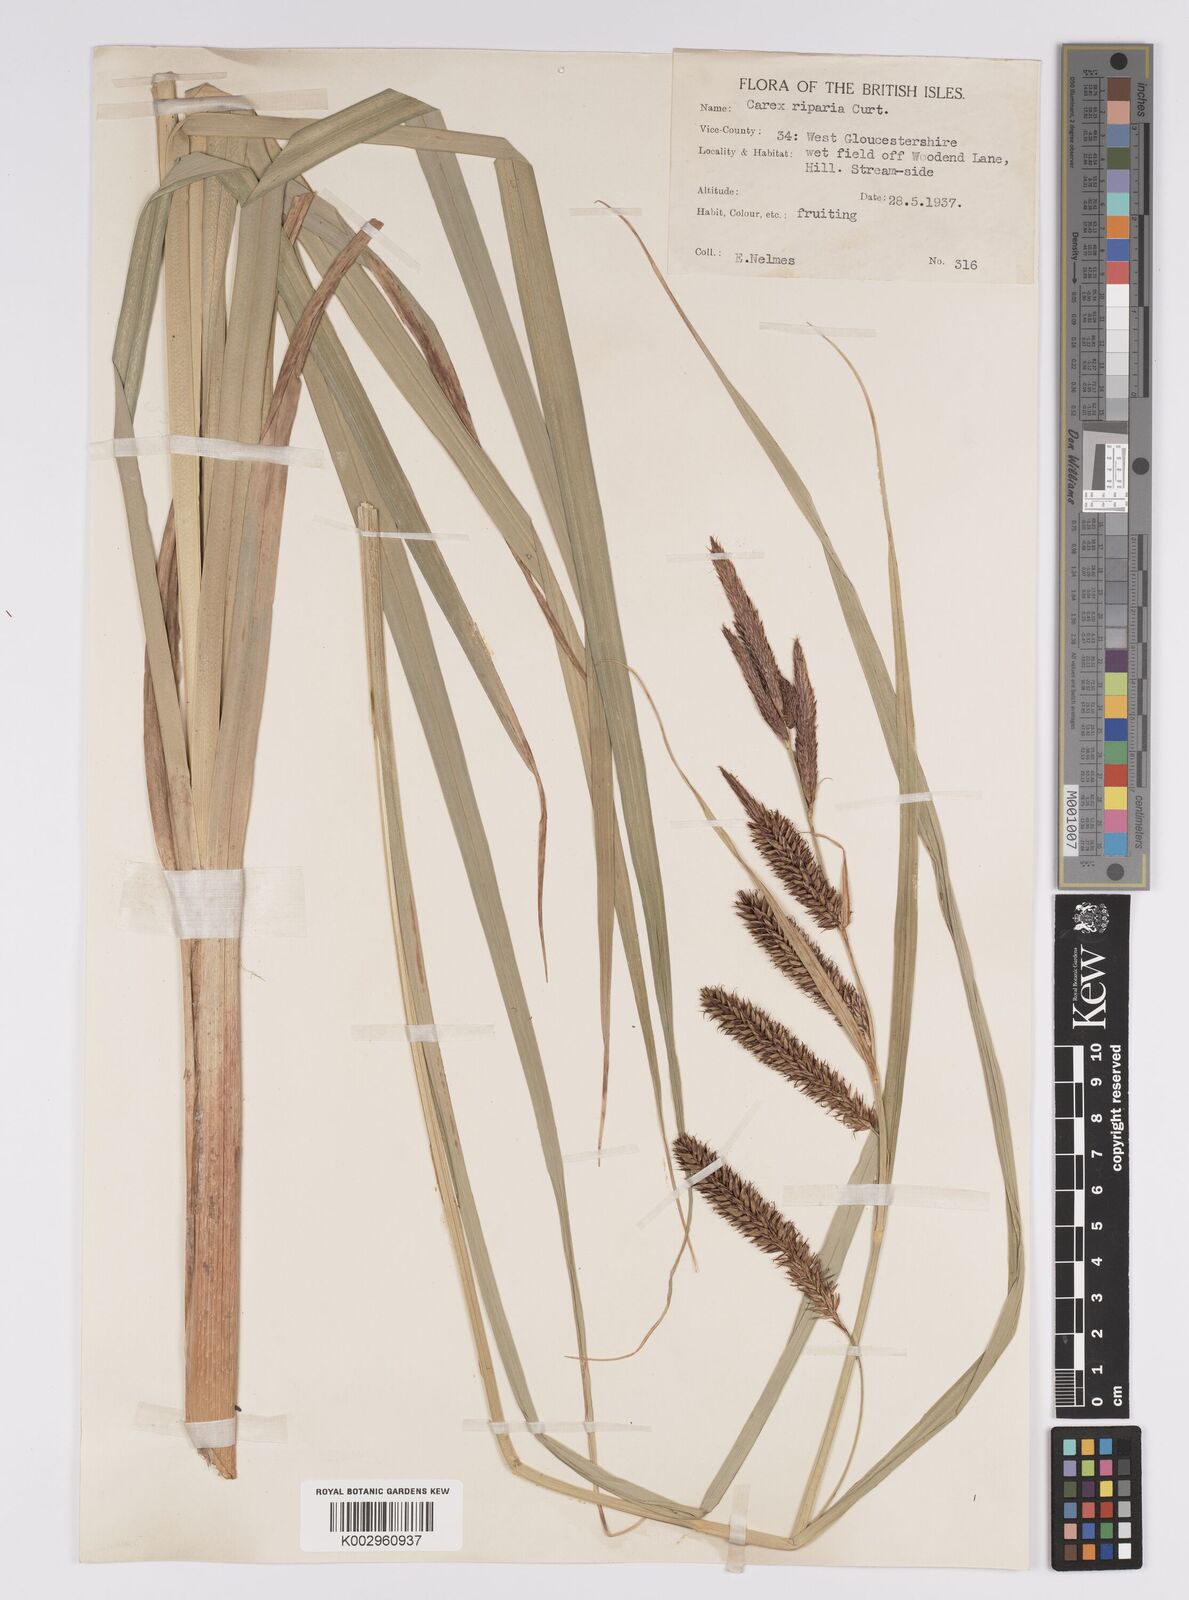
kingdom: Plantae
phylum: Tracheophyta
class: Liliopsida
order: Poales
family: Cyperaceae
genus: Carex
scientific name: Carex riparia
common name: Greater pond-sedge
